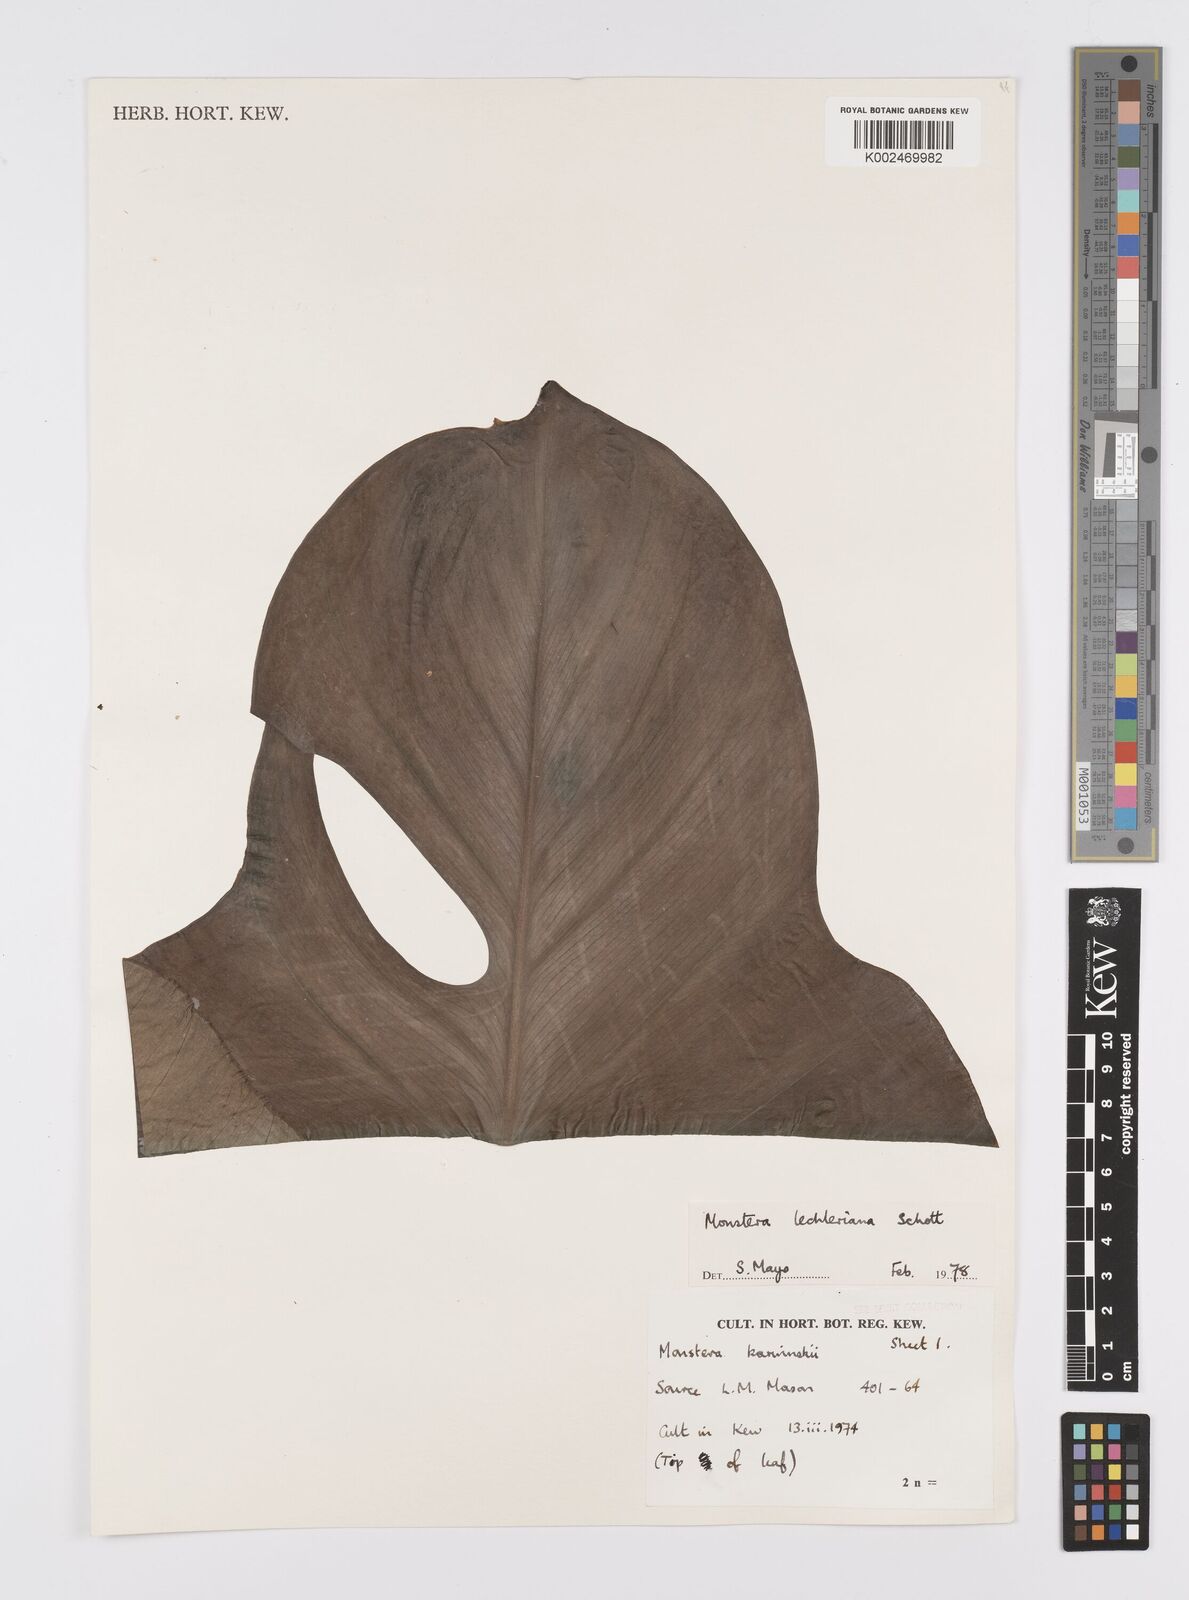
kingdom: Plantae
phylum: Tracheophyta
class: Liliopsida
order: Alismatales
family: Araceae
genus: Monstera
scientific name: Monstera lechleriana
